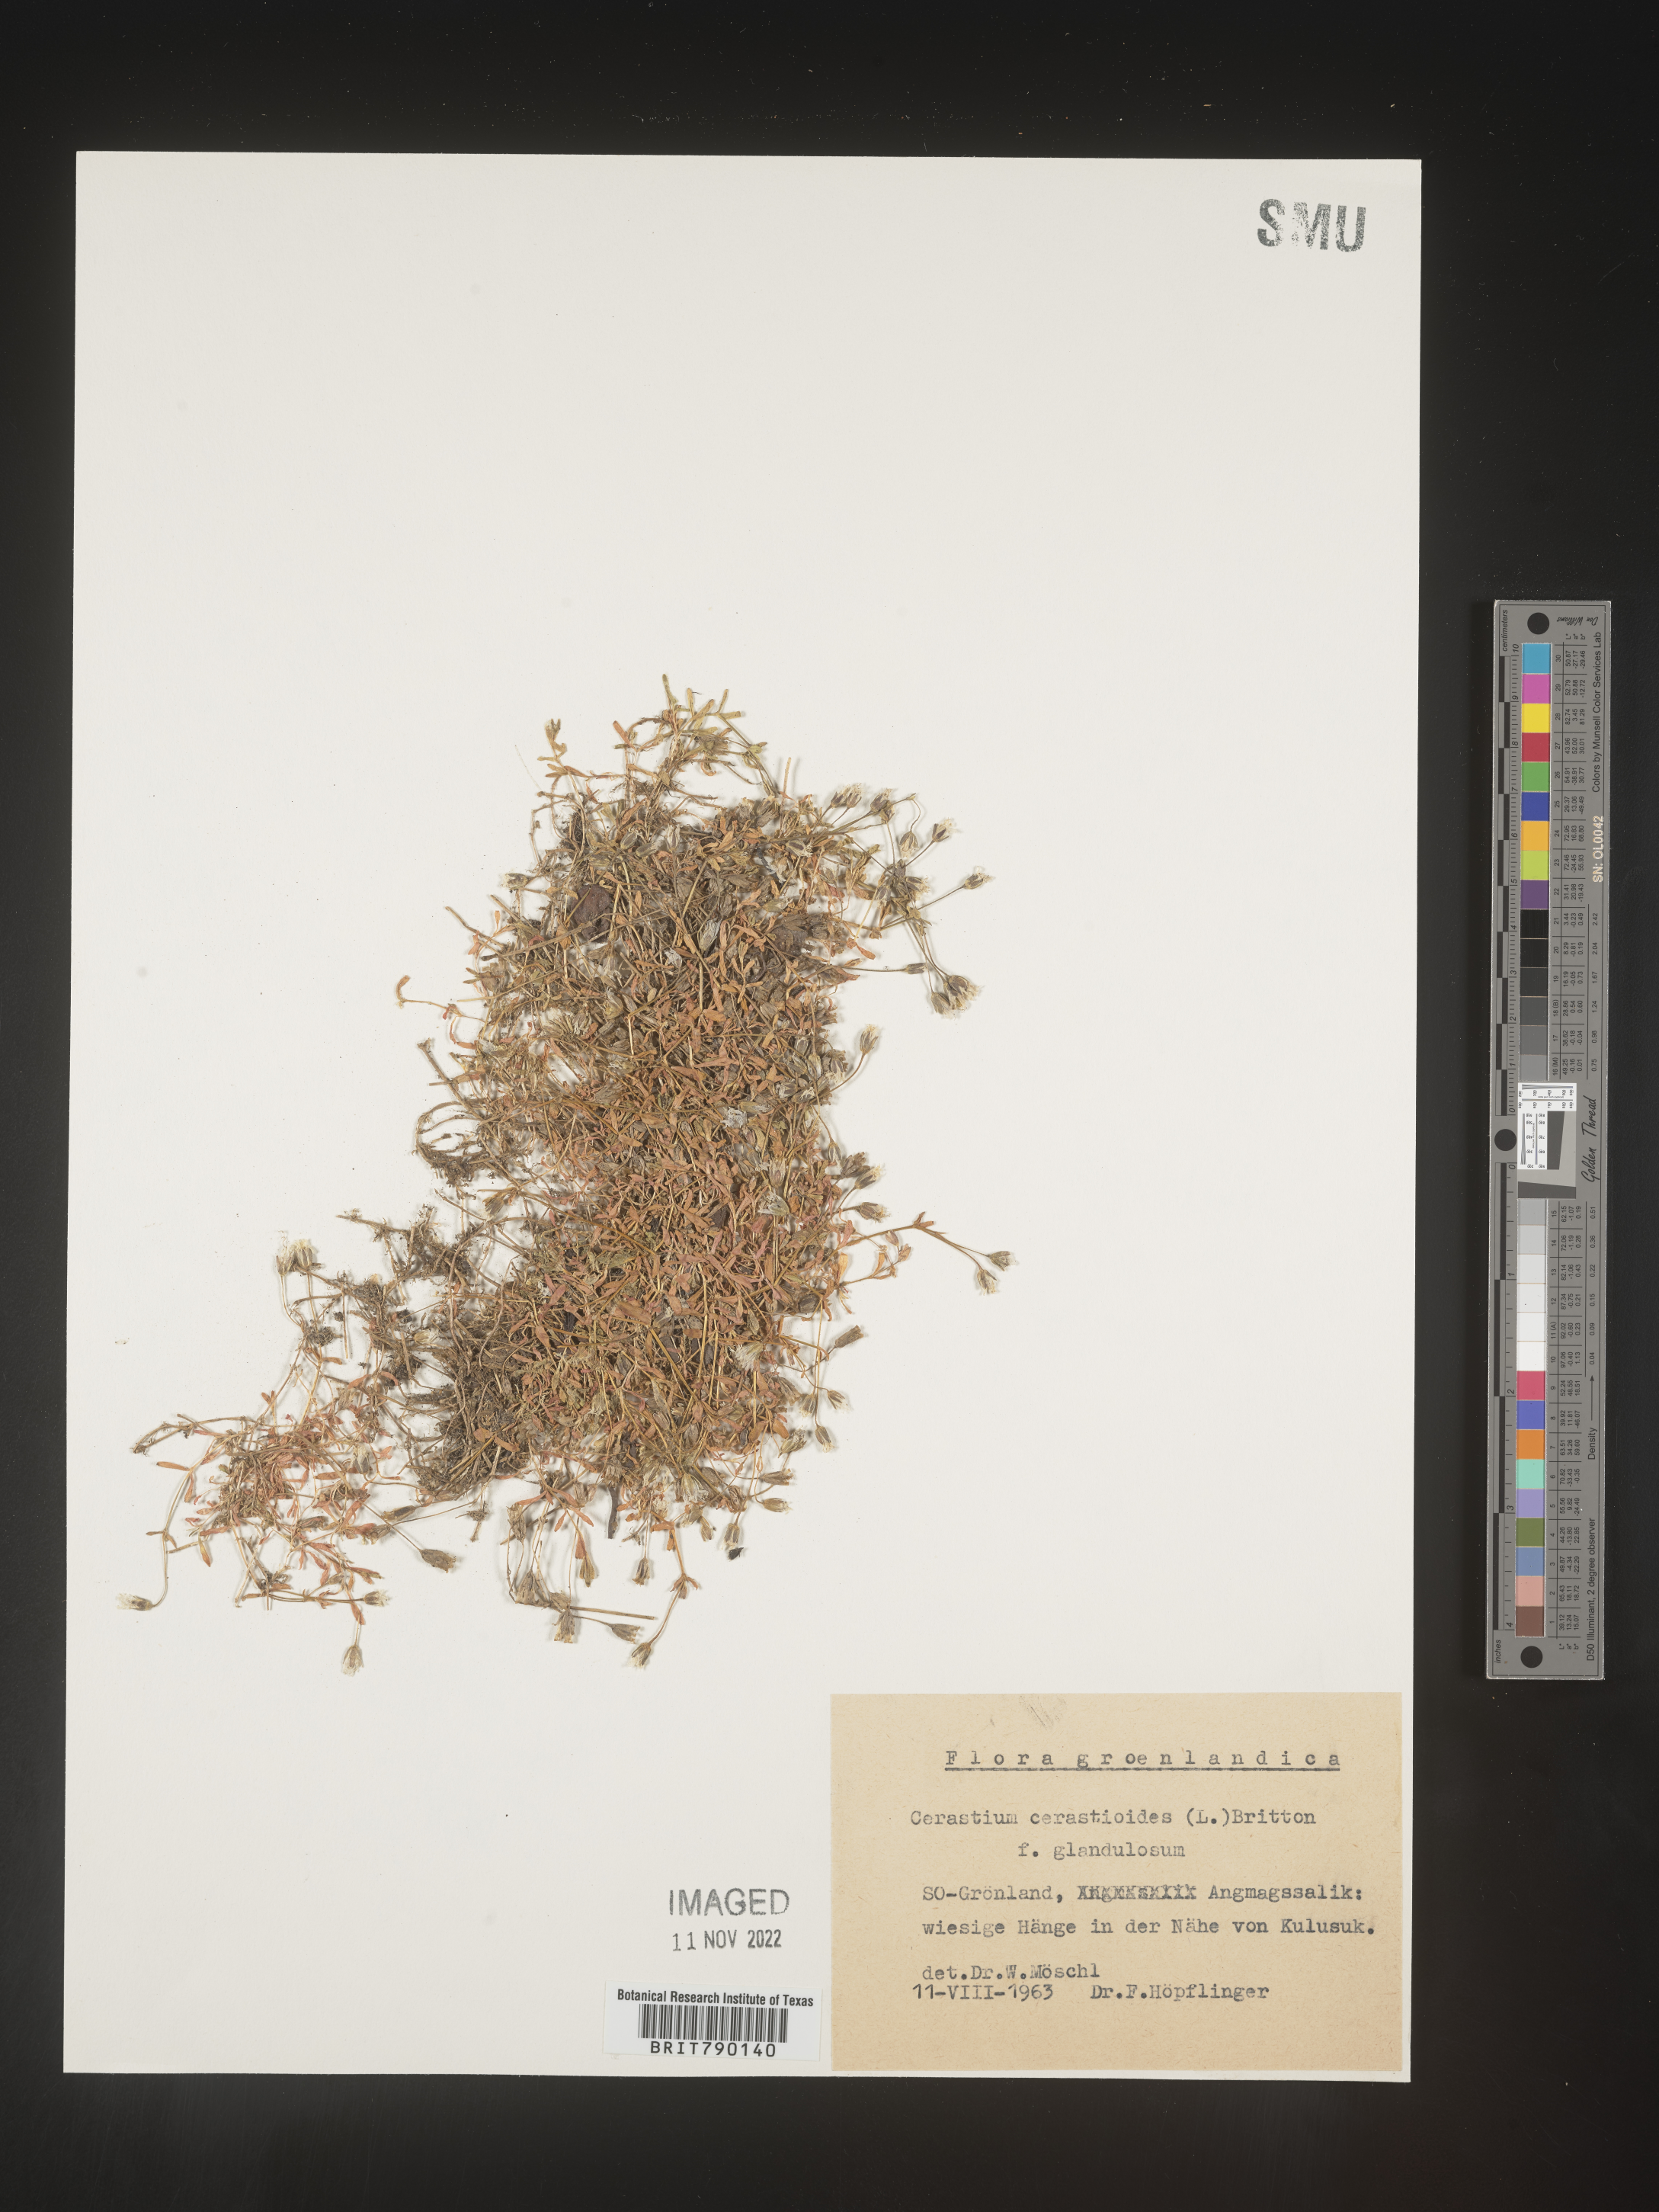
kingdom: Plantae
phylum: Tracheophyta
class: Magnoliopsida
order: Caryophyllales
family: Caryophyllaceae
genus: Cerastium
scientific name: Cerastium
